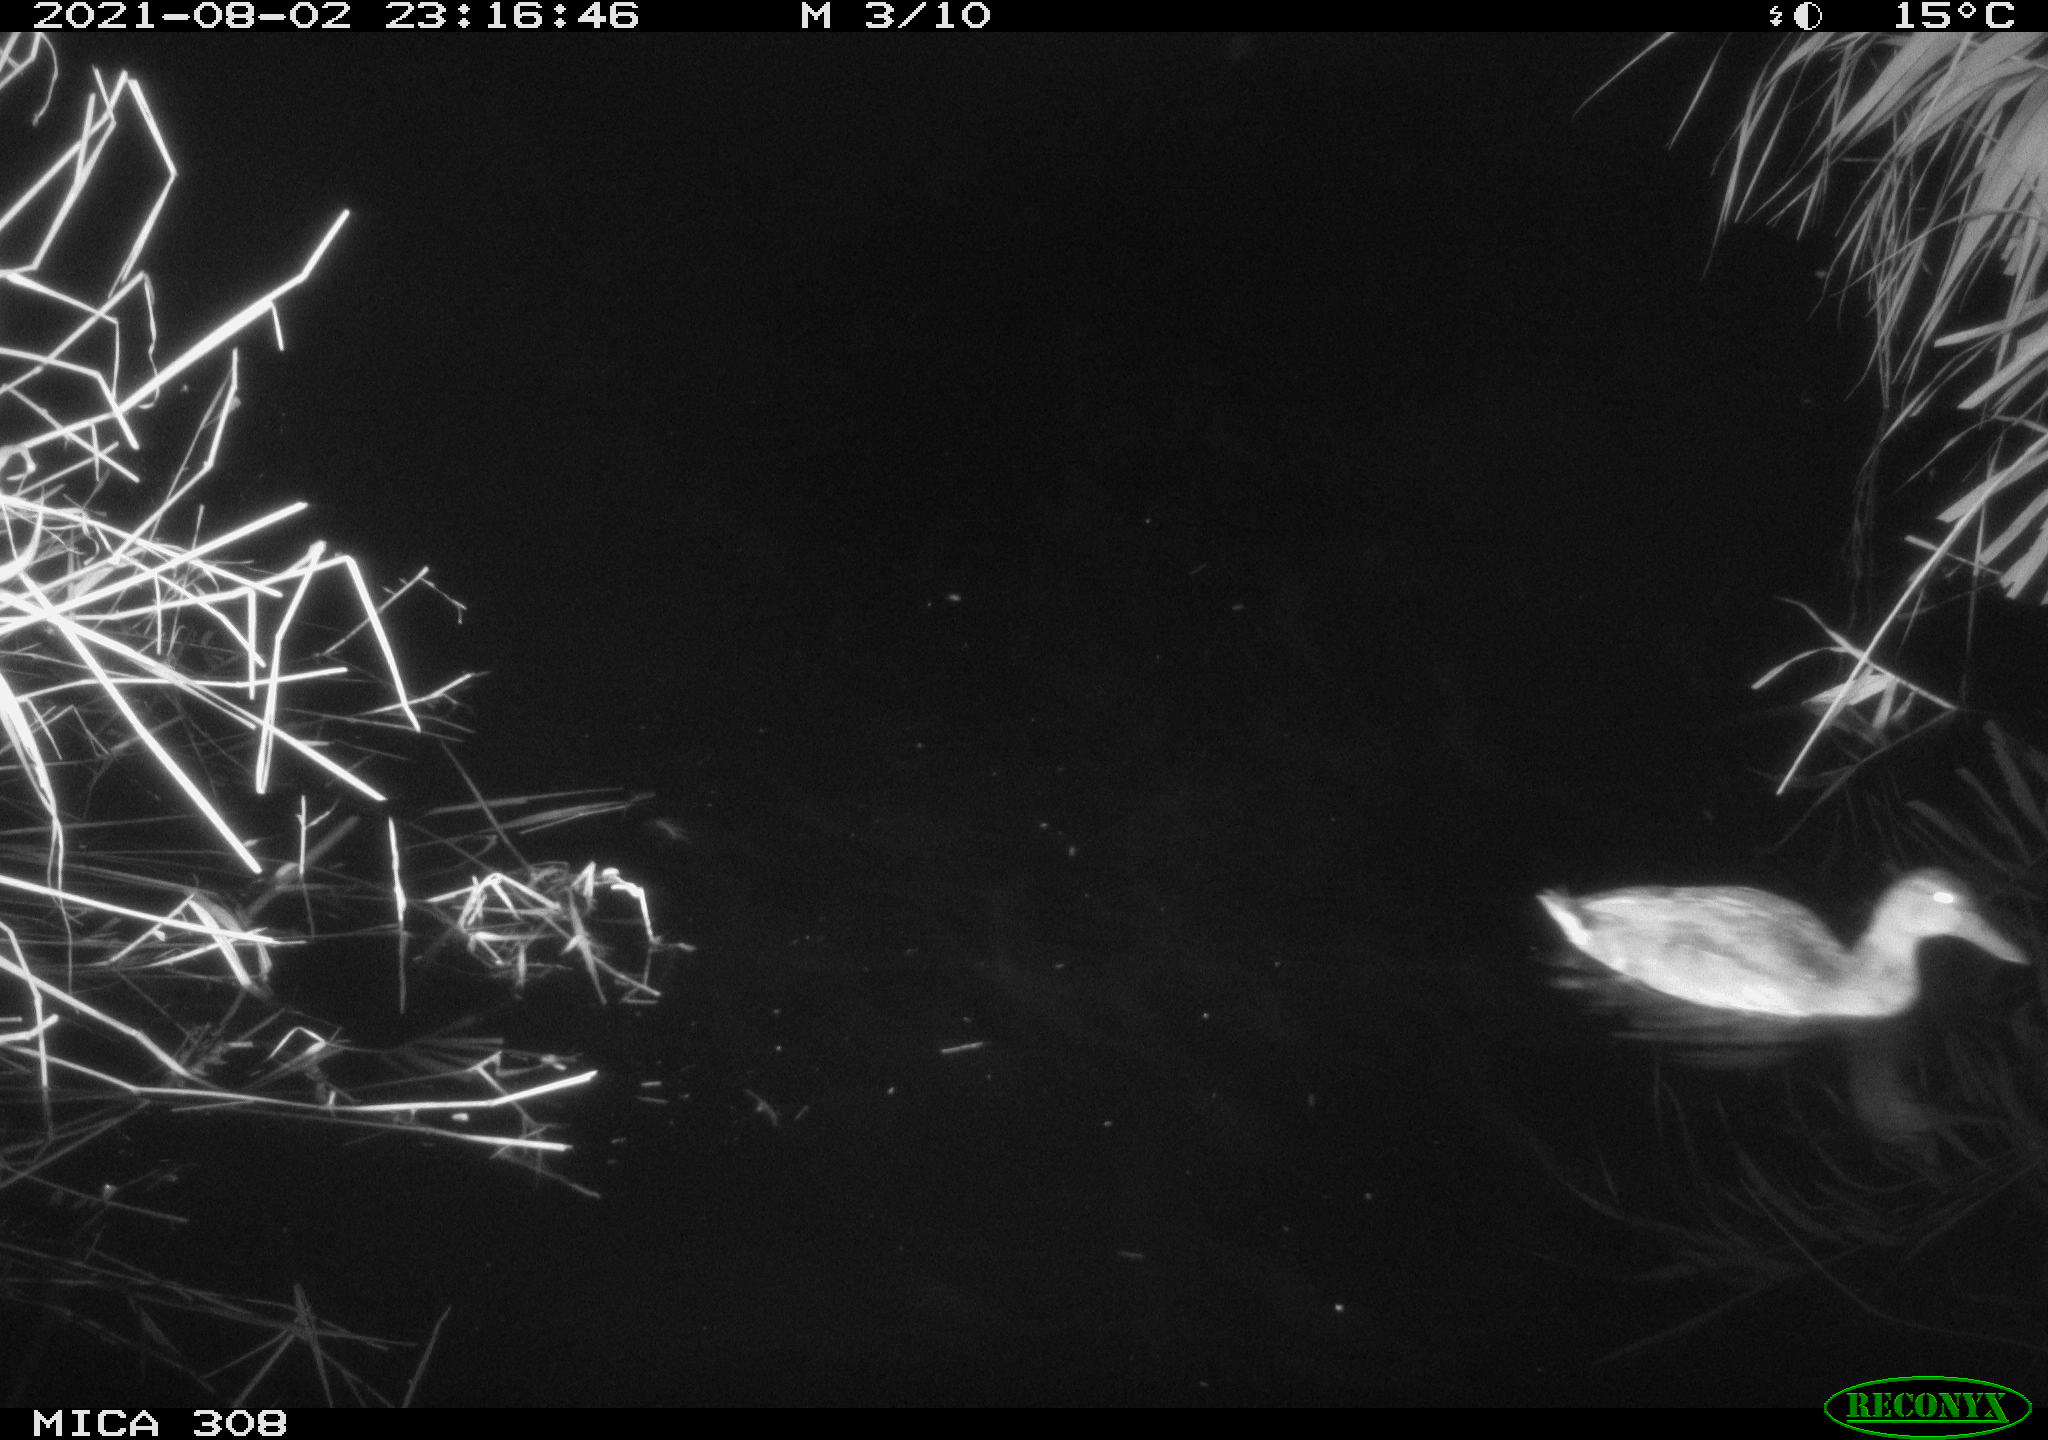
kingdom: Animalia
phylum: Chordata
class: Aves
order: Anseriformes
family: Anatidae
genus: Anas
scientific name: Anas platyrhynchos
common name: Mallard
